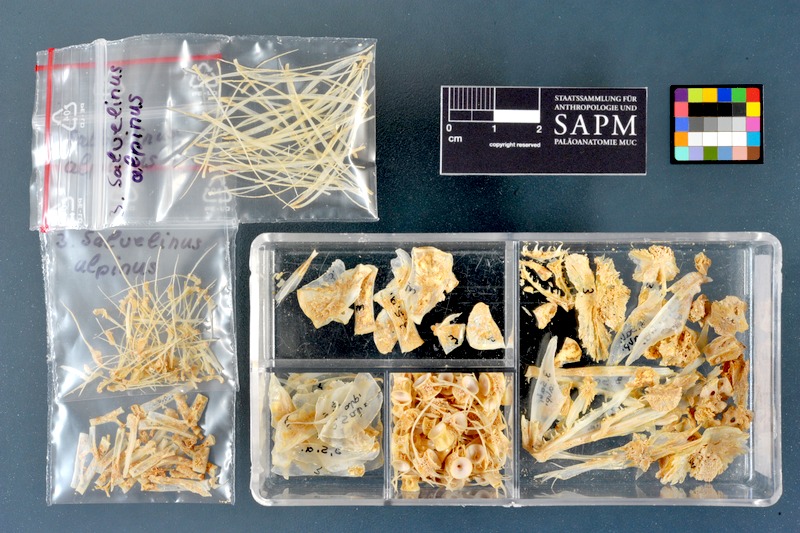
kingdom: Animalia
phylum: Chordata
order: Salmoniformes
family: Salmonidae
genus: Salvelinus
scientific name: Salvelinus alpinus
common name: Charr
